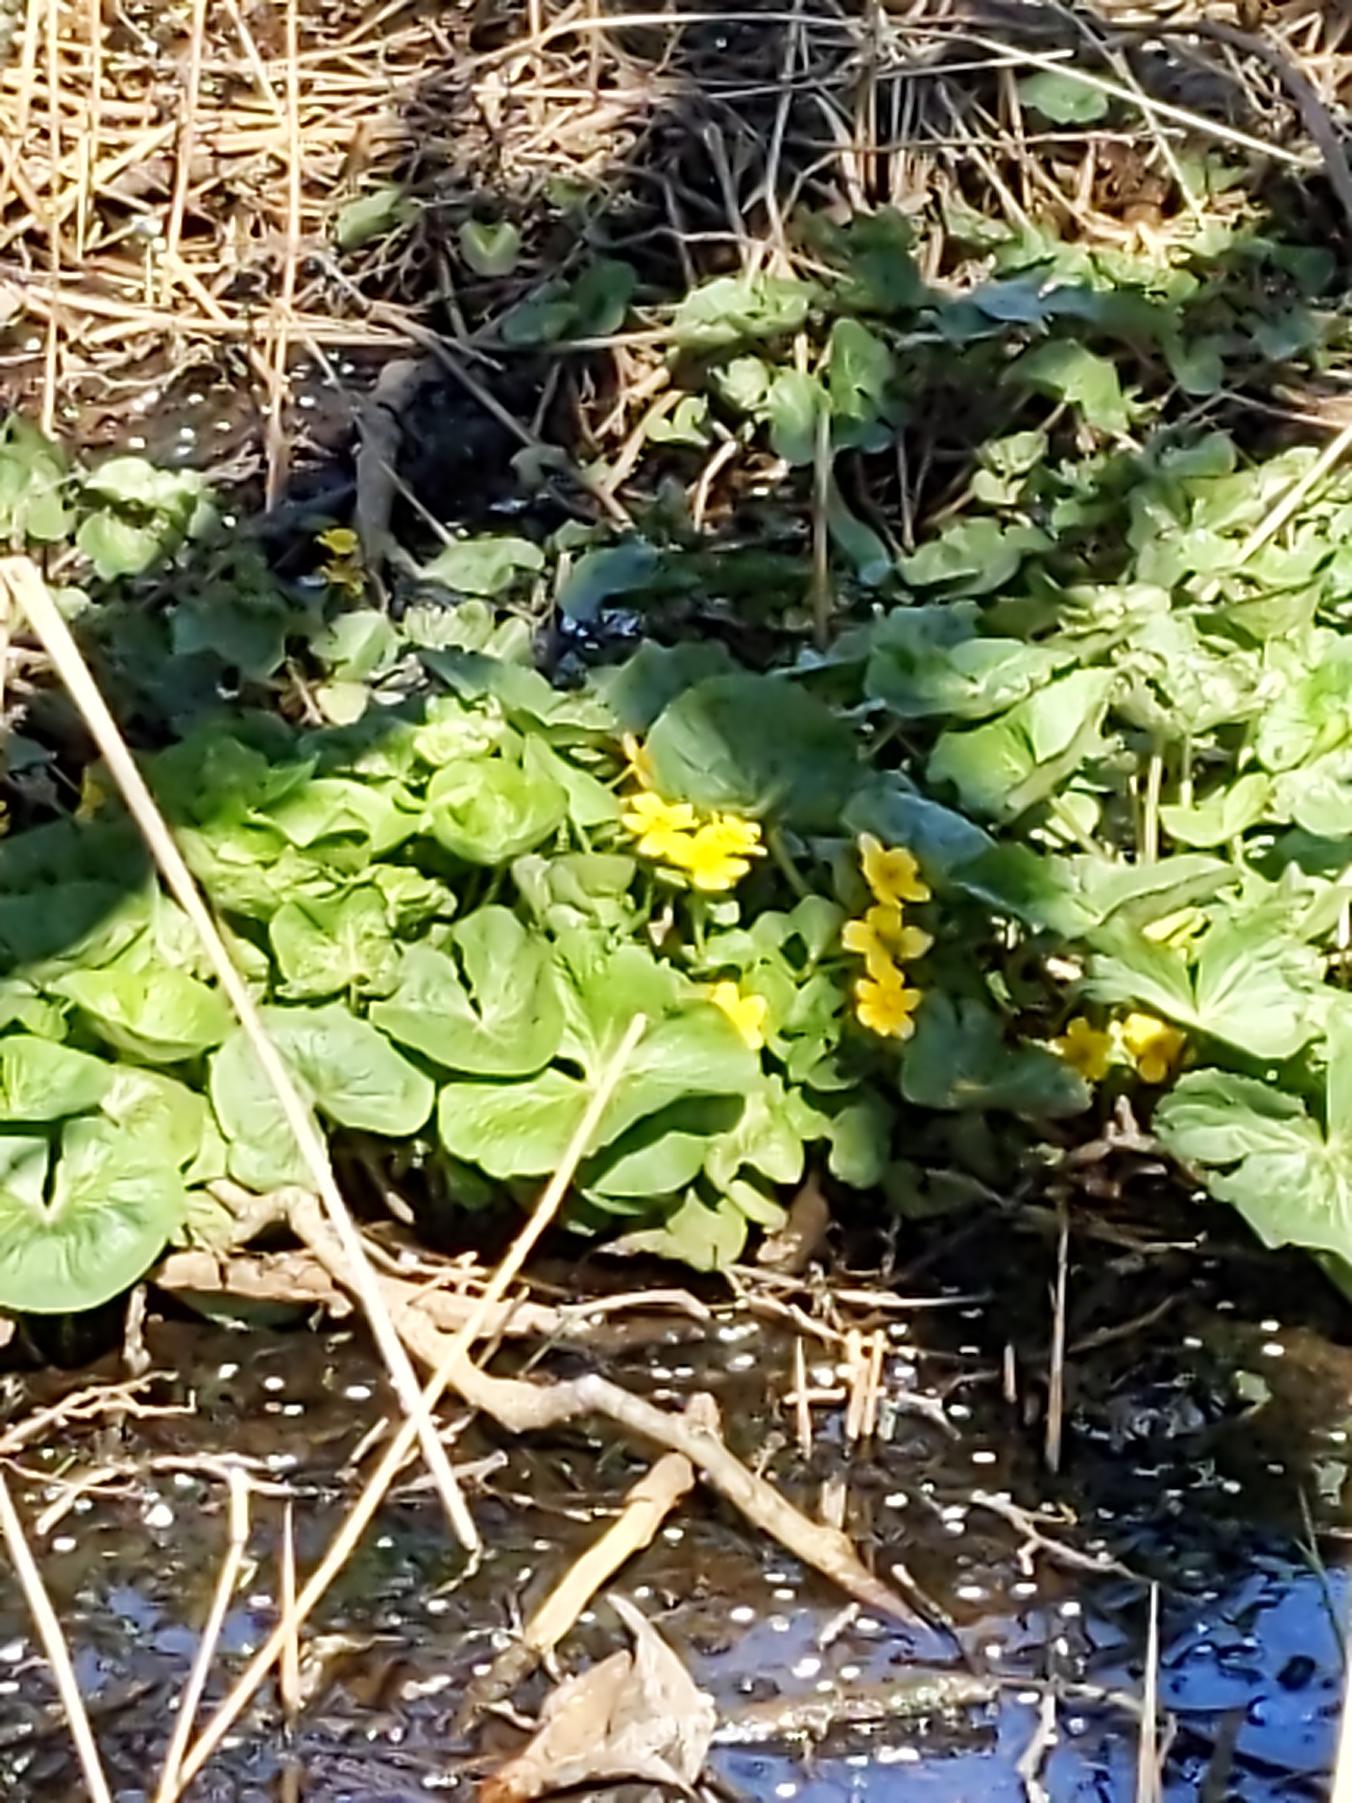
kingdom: Plantae
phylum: Tracheophyta
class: Magnoliopsida
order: Ranunculales
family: Ranunculaceae
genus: Caltha
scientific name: Caltha palustris
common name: Eng-kabbeleje
